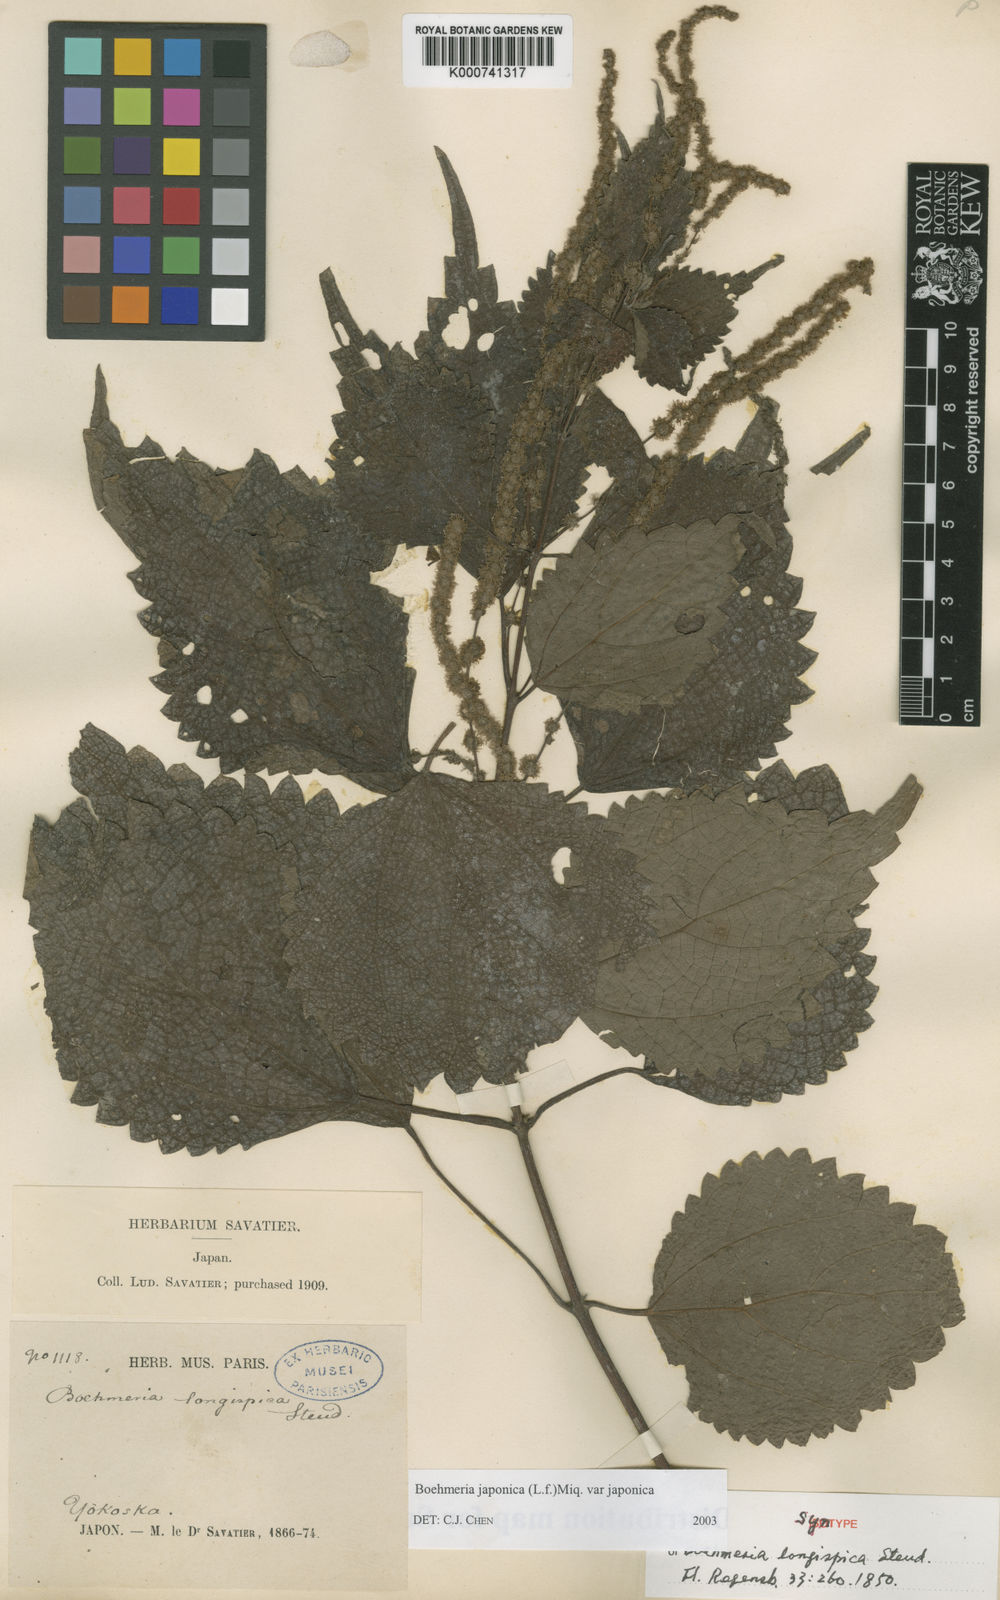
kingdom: Plantae
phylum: Tracheophyta
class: Magnoliopsida
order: Rosales
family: Urticaceae
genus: Boehmeria
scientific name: Boehmeria japonica
